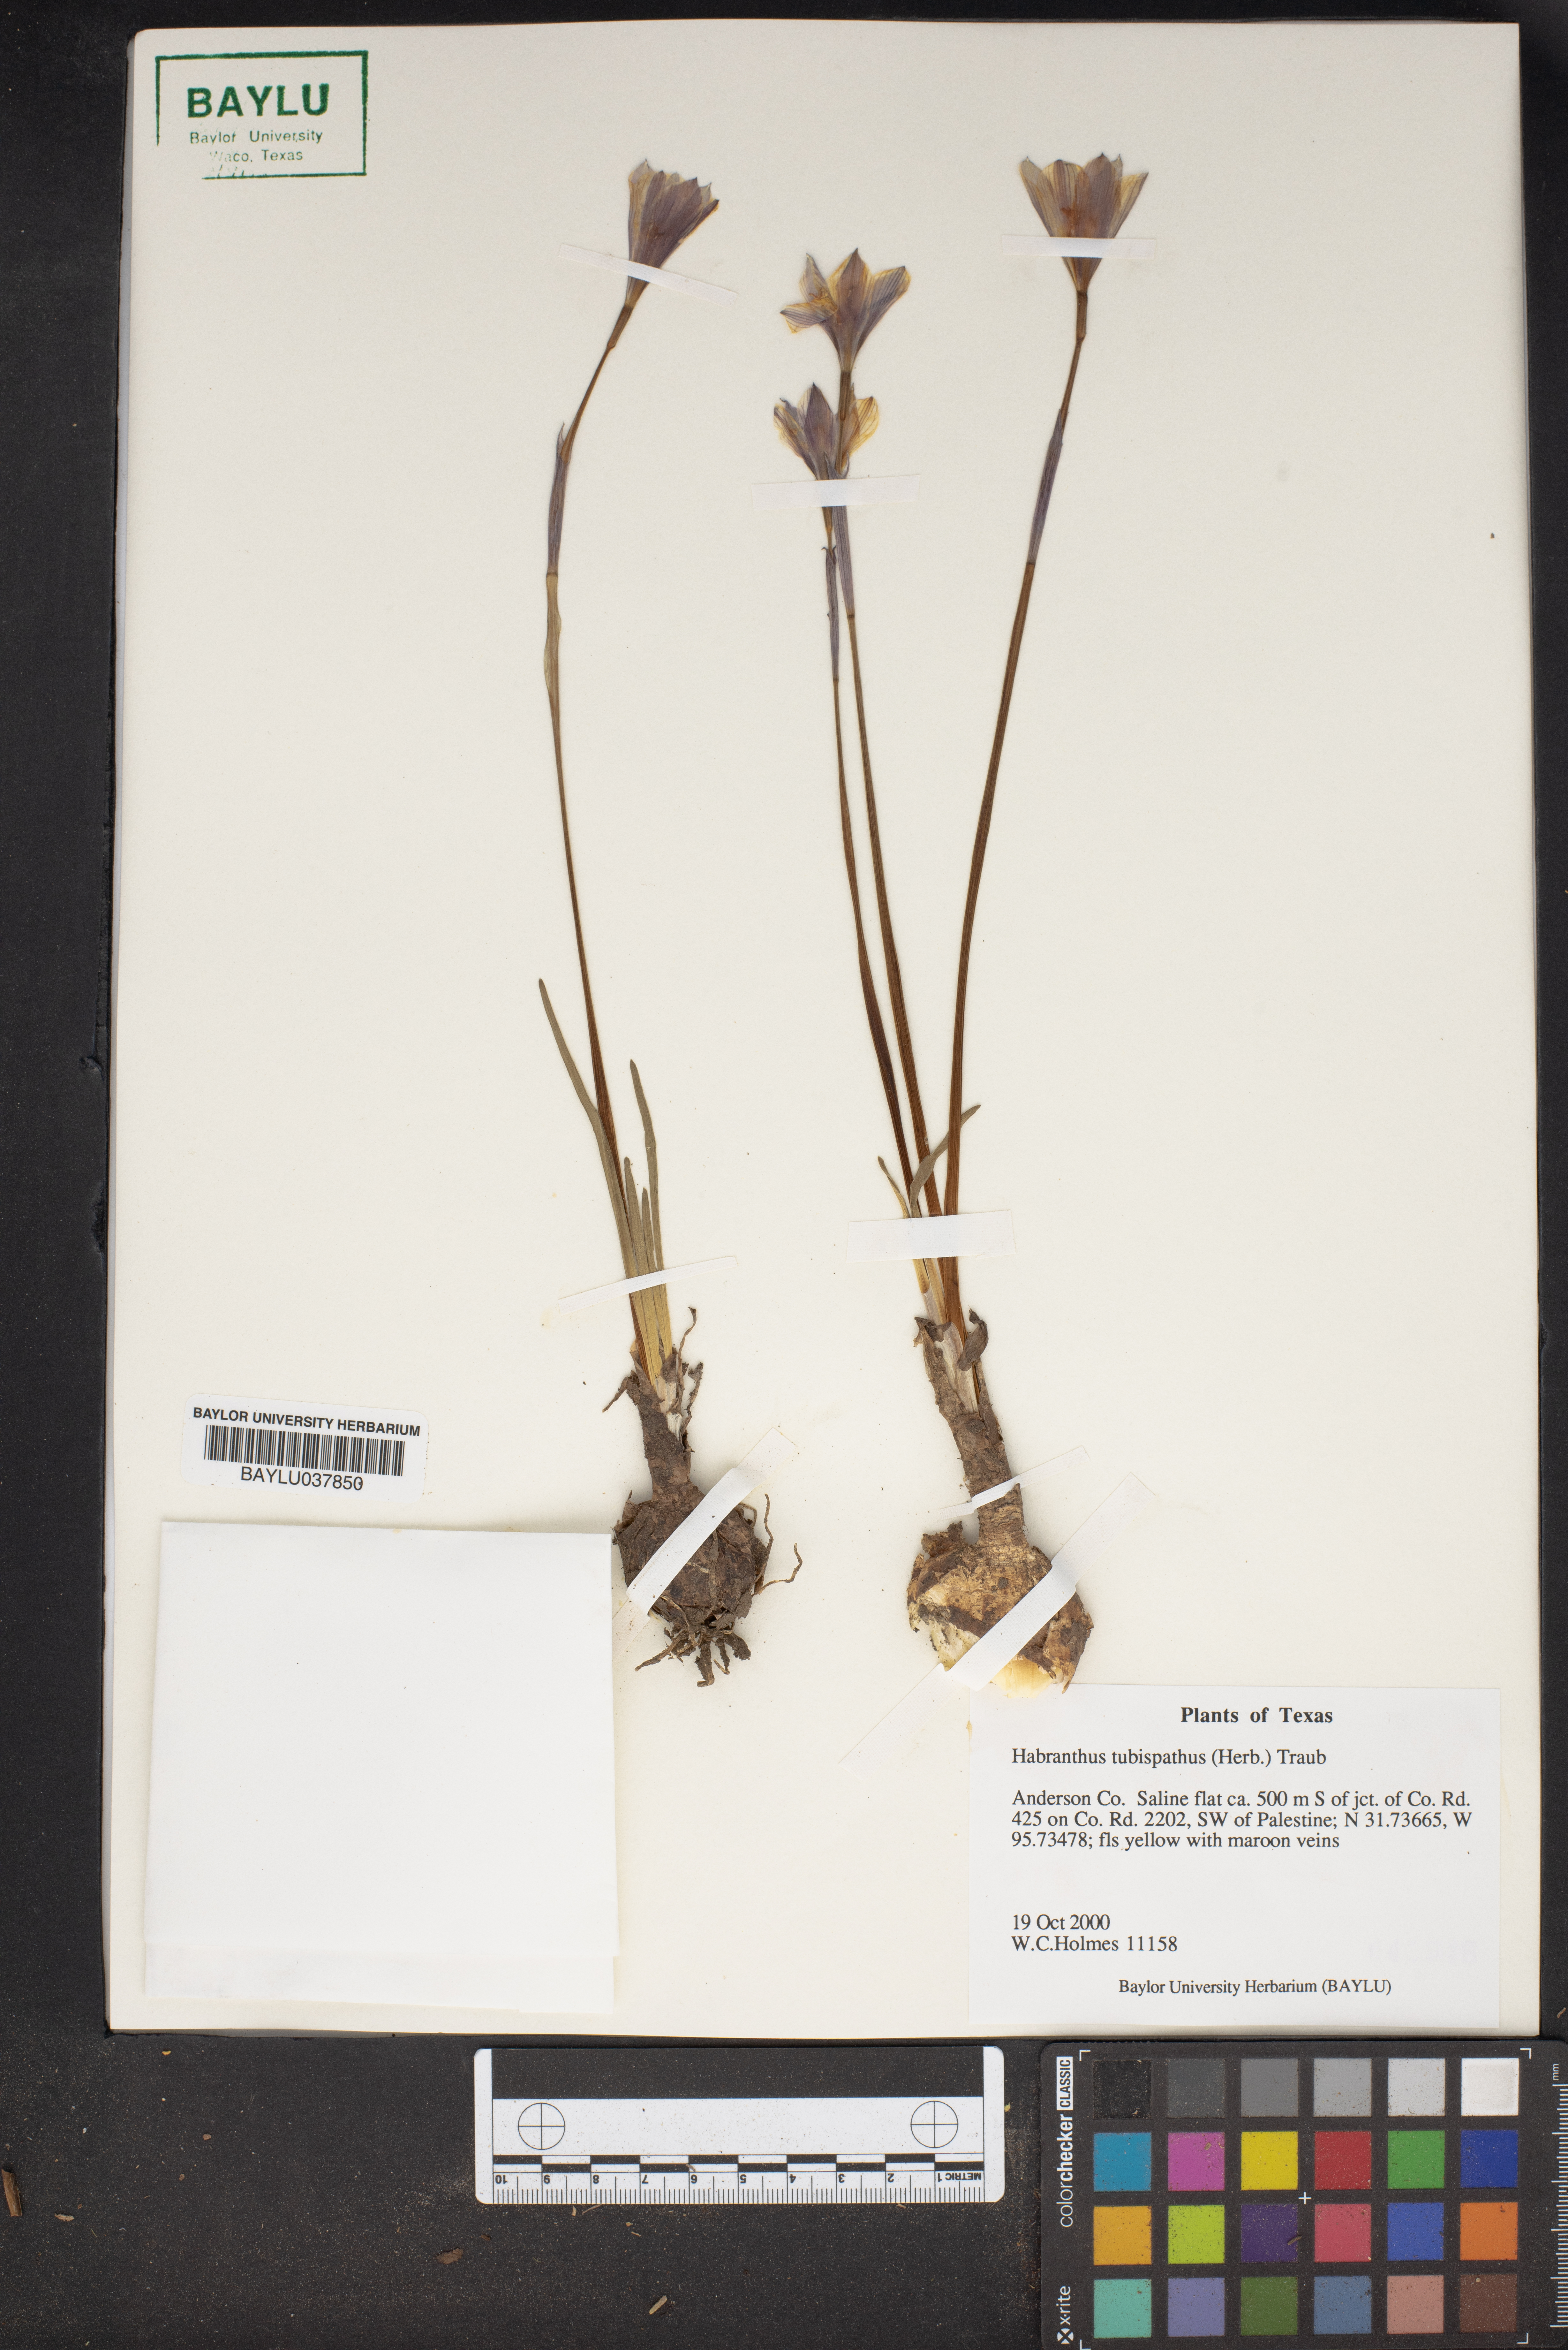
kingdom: Plantae
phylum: Tracheophyta
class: Liliopsida
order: Asparagales
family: Amaryllidaceae
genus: Zephyranthes
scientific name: Zephyranthes tubispatha
